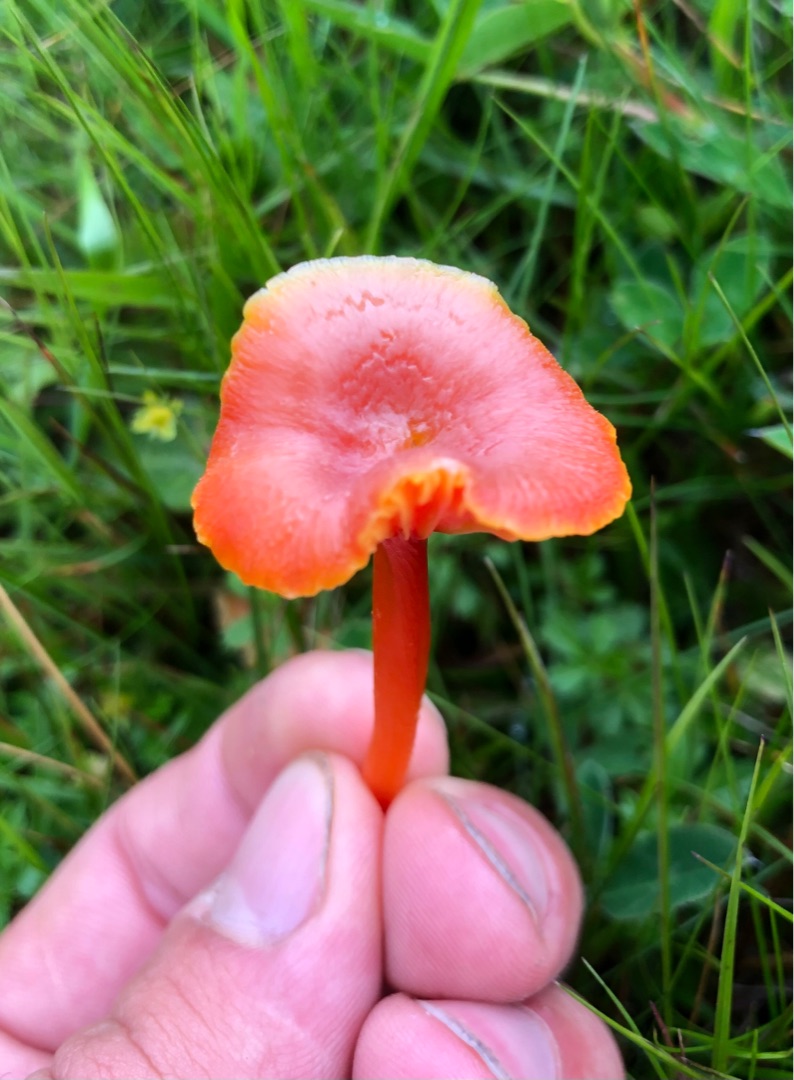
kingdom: Fungi
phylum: Basidiomycota
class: Agaricomycetes
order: Agaricales
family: Hygrophoraceae
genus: Hygrocybe
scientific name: Hygrocybe miniata
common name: Mønje-vokshat
